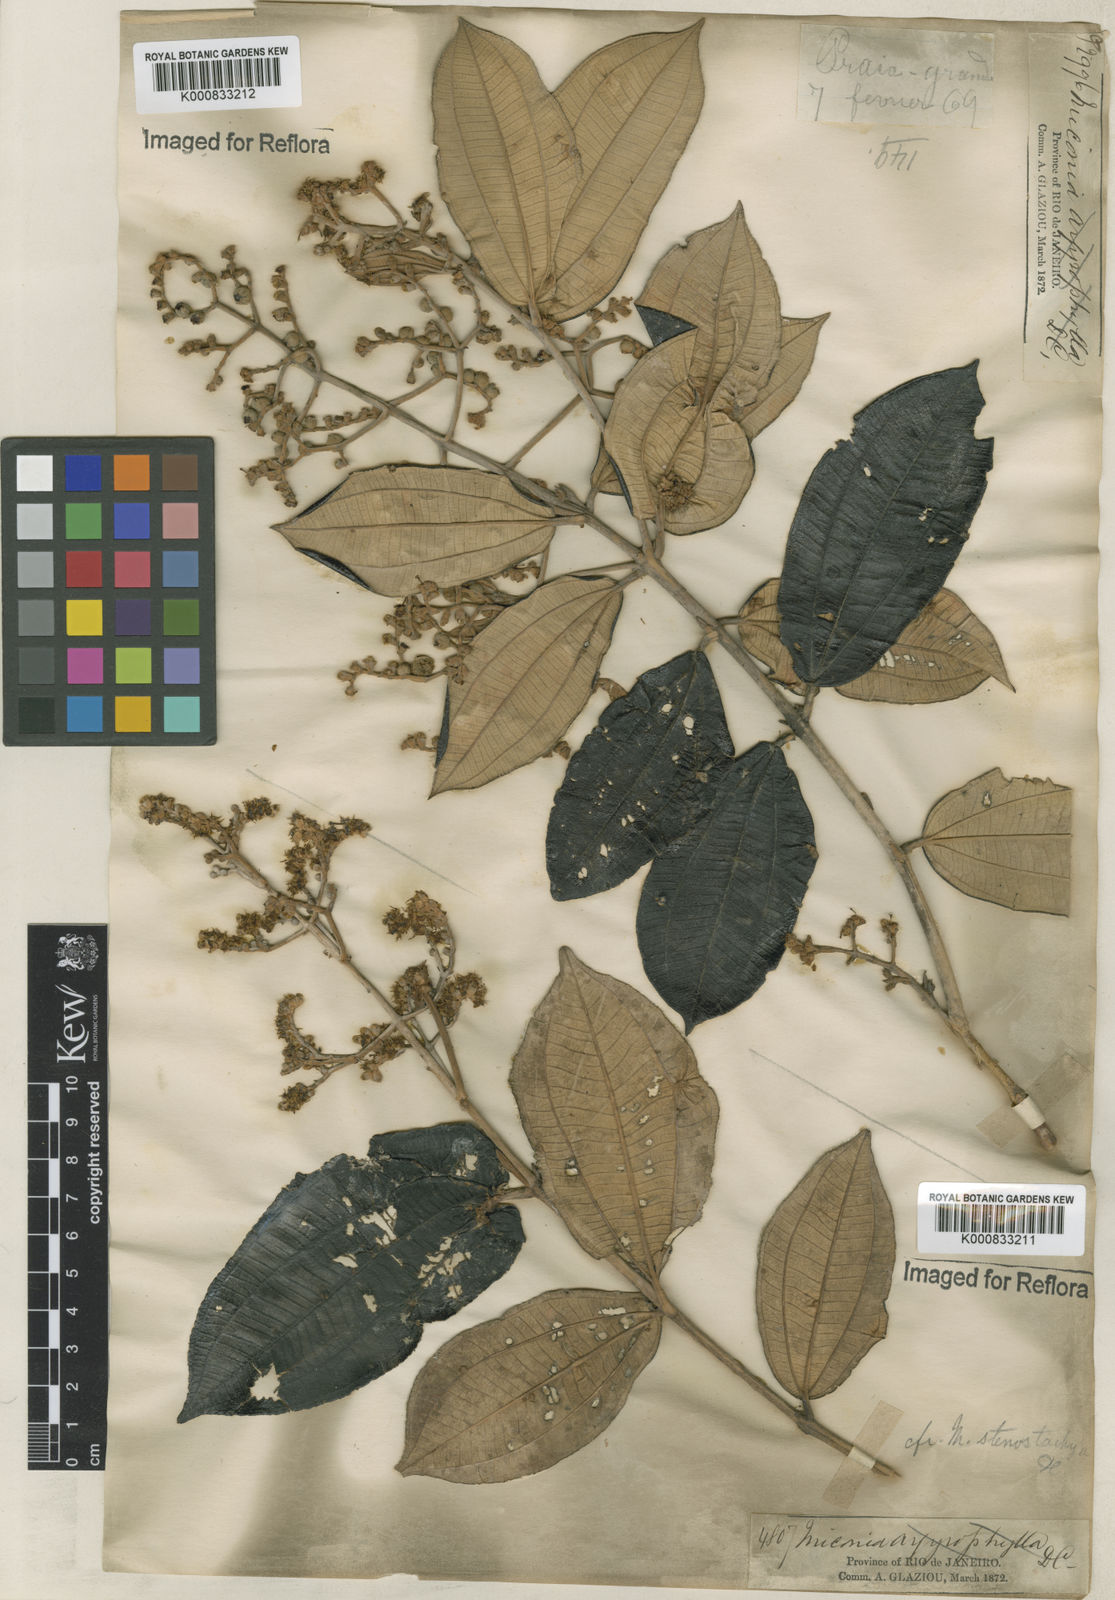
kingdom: Plantae
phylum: Tracheophyta
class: Magnoliopsida
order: Myrtales
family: Melastomataceae
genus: Miconia
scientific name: Miconia stenostachya
